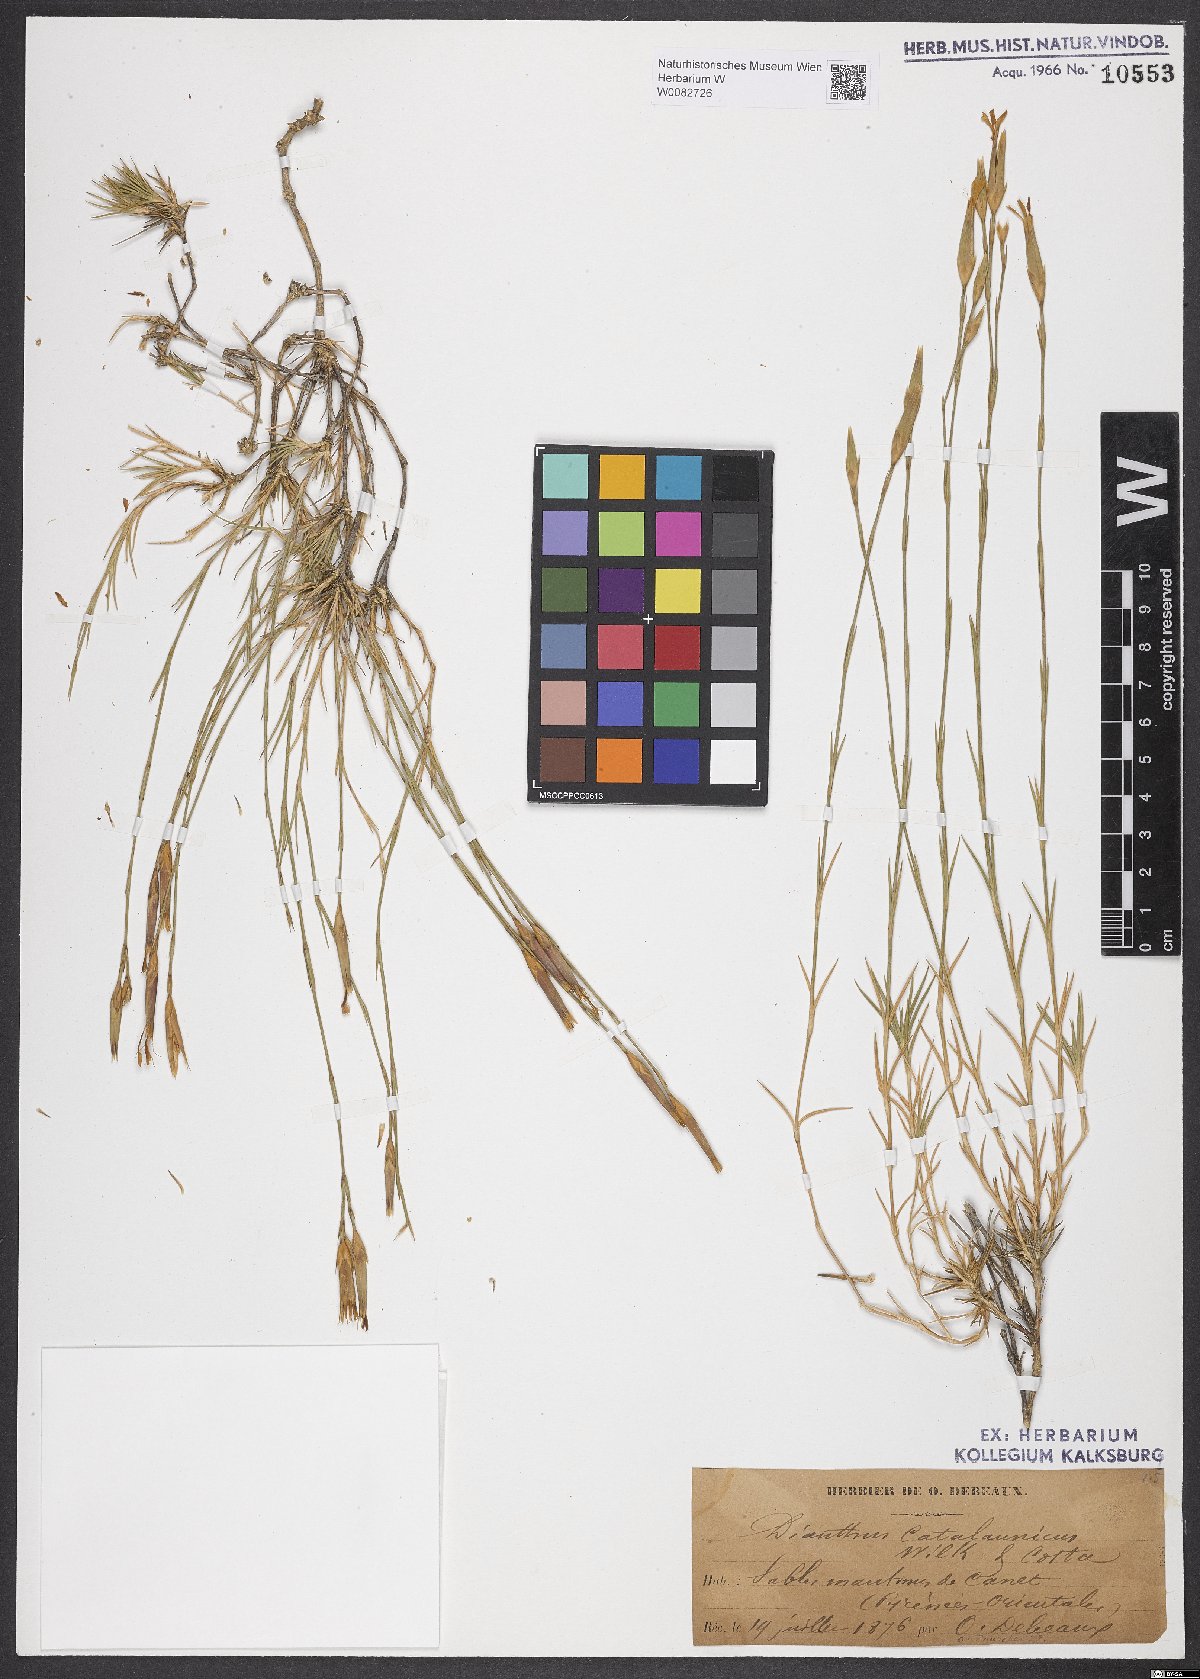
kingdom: Plantae
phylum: Tracheophyta
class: Magnoliopsida
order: Caryophyllales
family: Caryophyllaceae
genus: Dianthus
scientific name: Dianthus pyrenaicus
